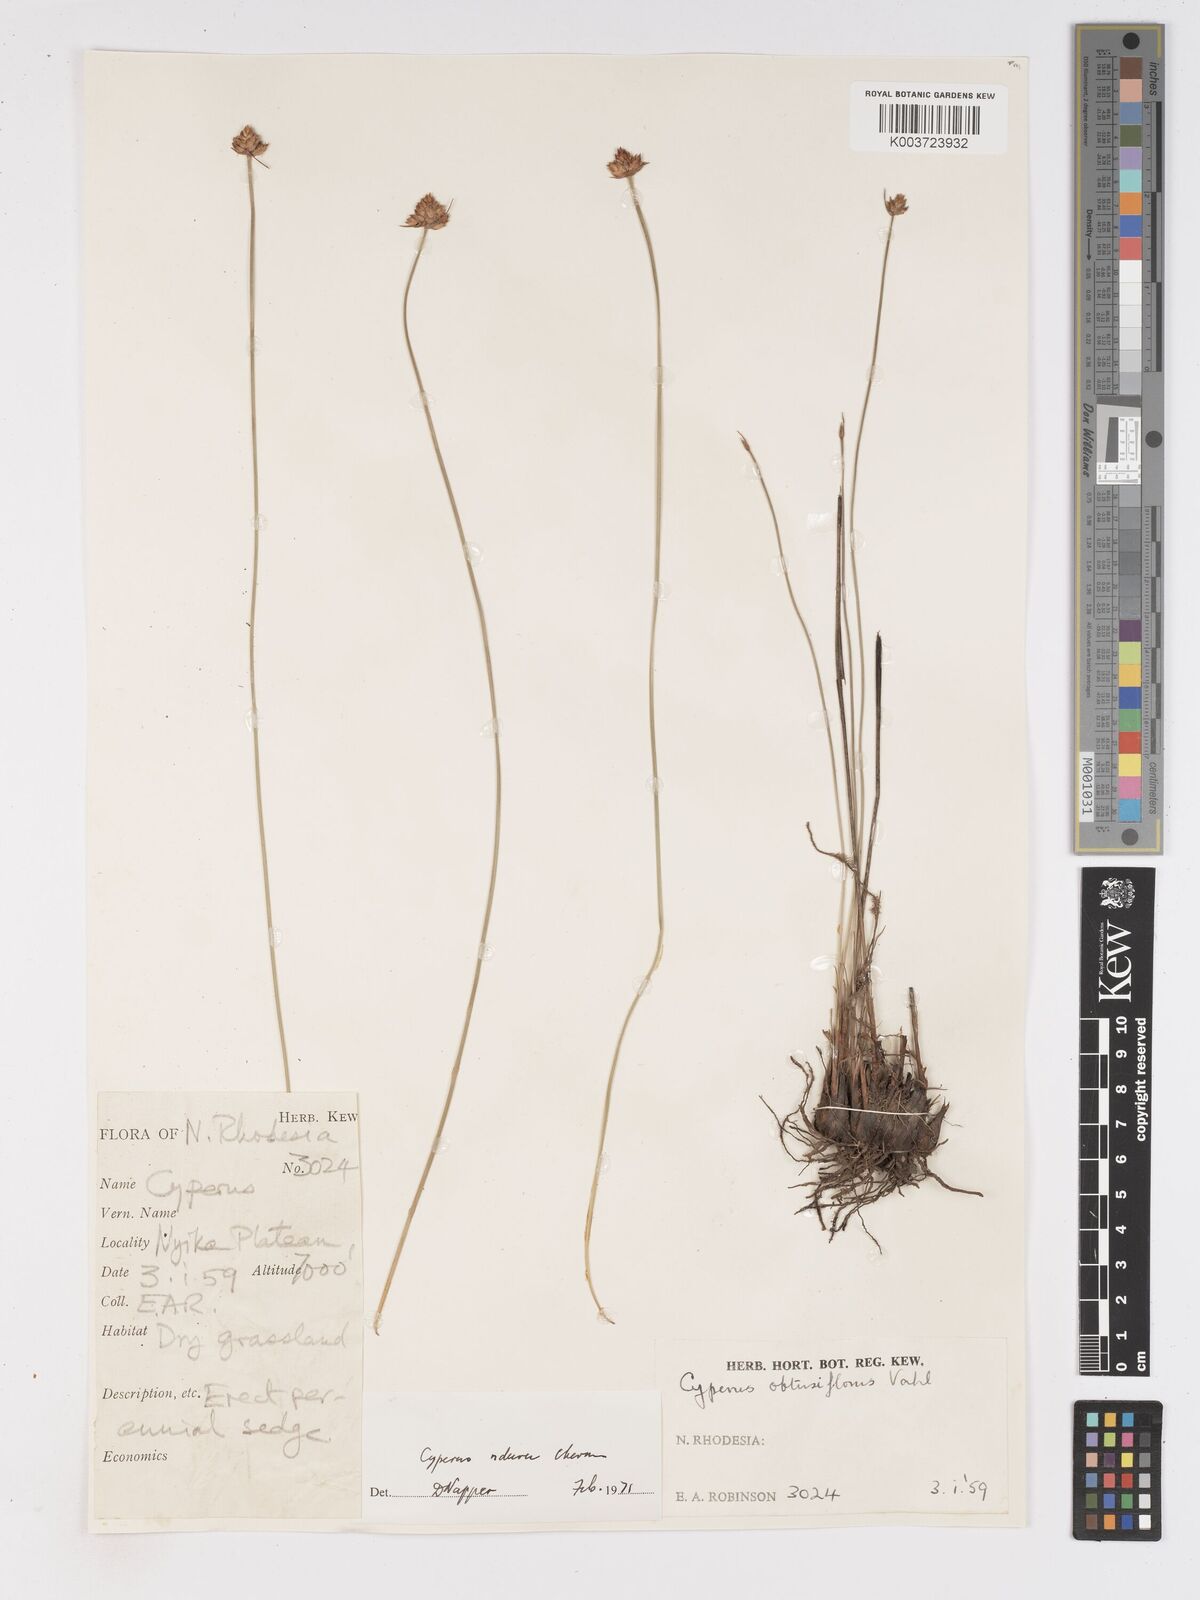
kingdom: Plantae
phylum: Tracheophyta
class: Liliopsida
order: Poales
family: Cyperaceae
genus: Cyperus
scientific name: Cyperus nduru
